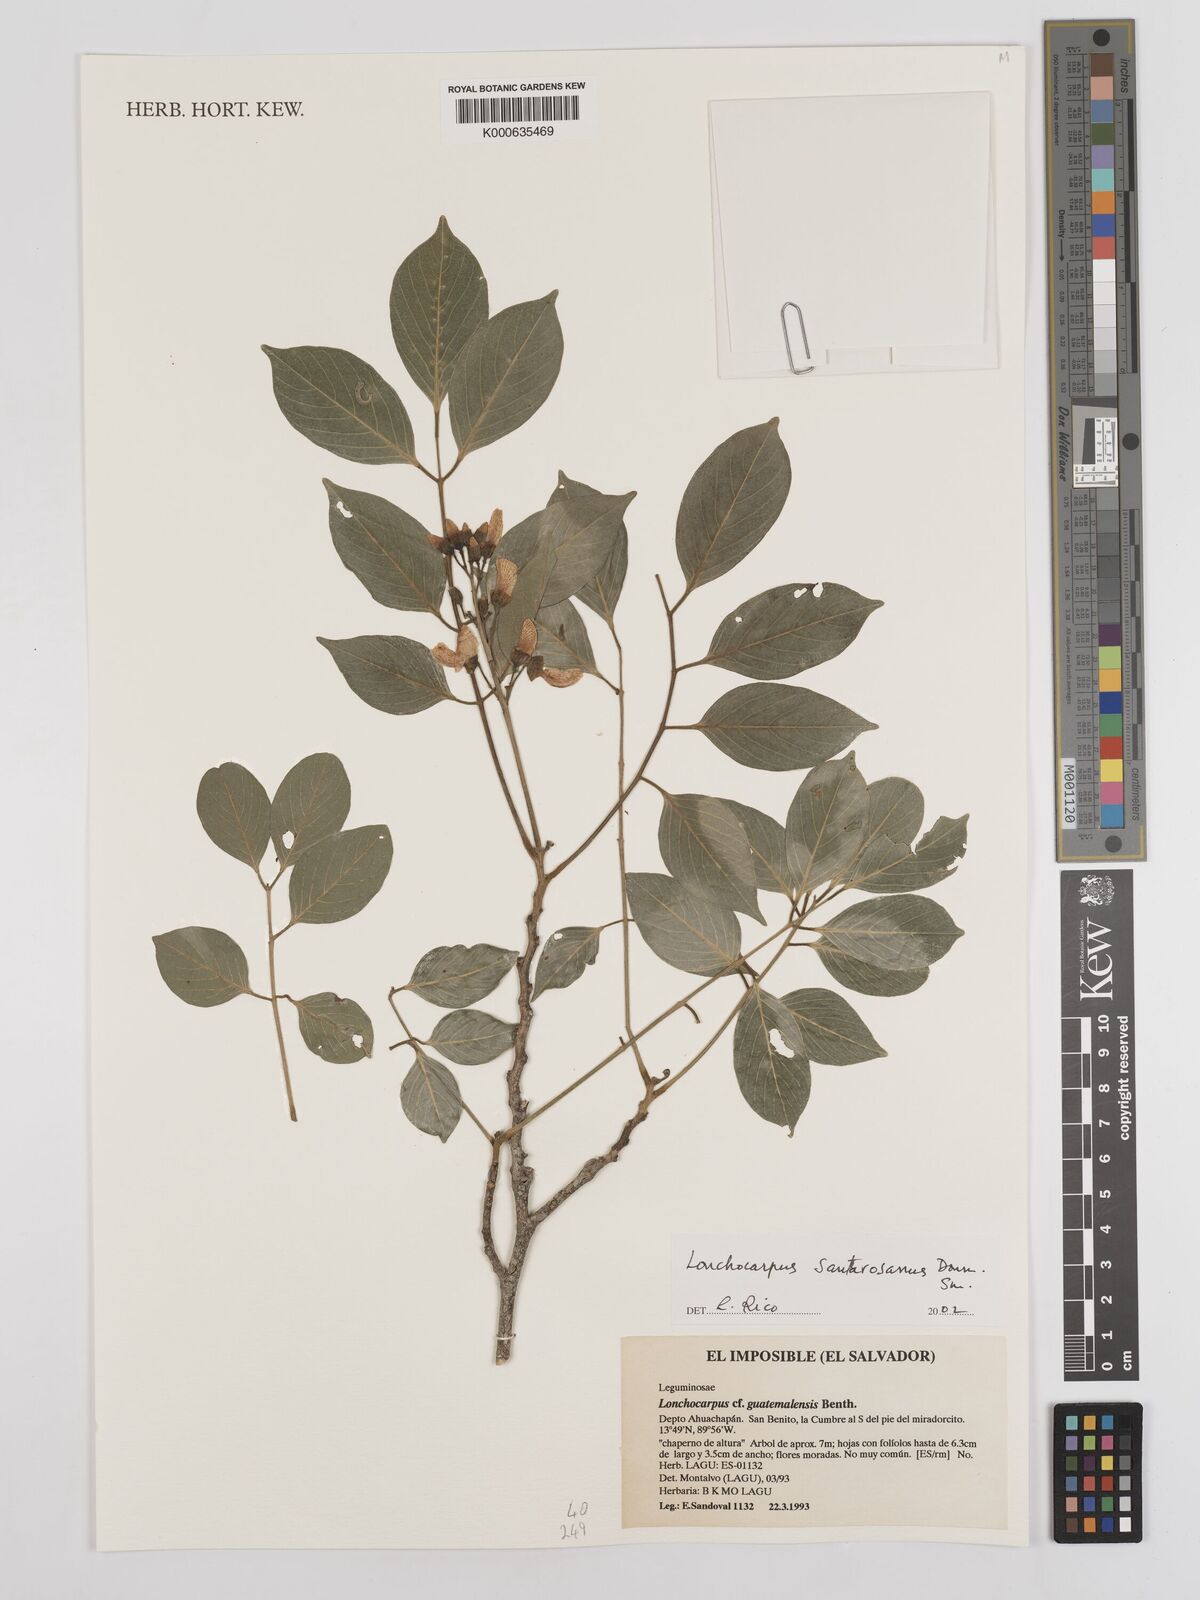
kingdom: Plantae
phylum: Tracheophyta
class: Magnoliopsida
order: Fabales
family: Fabaceae
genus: Lonchocarpus
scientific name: Lonchocarpus santarosanus
